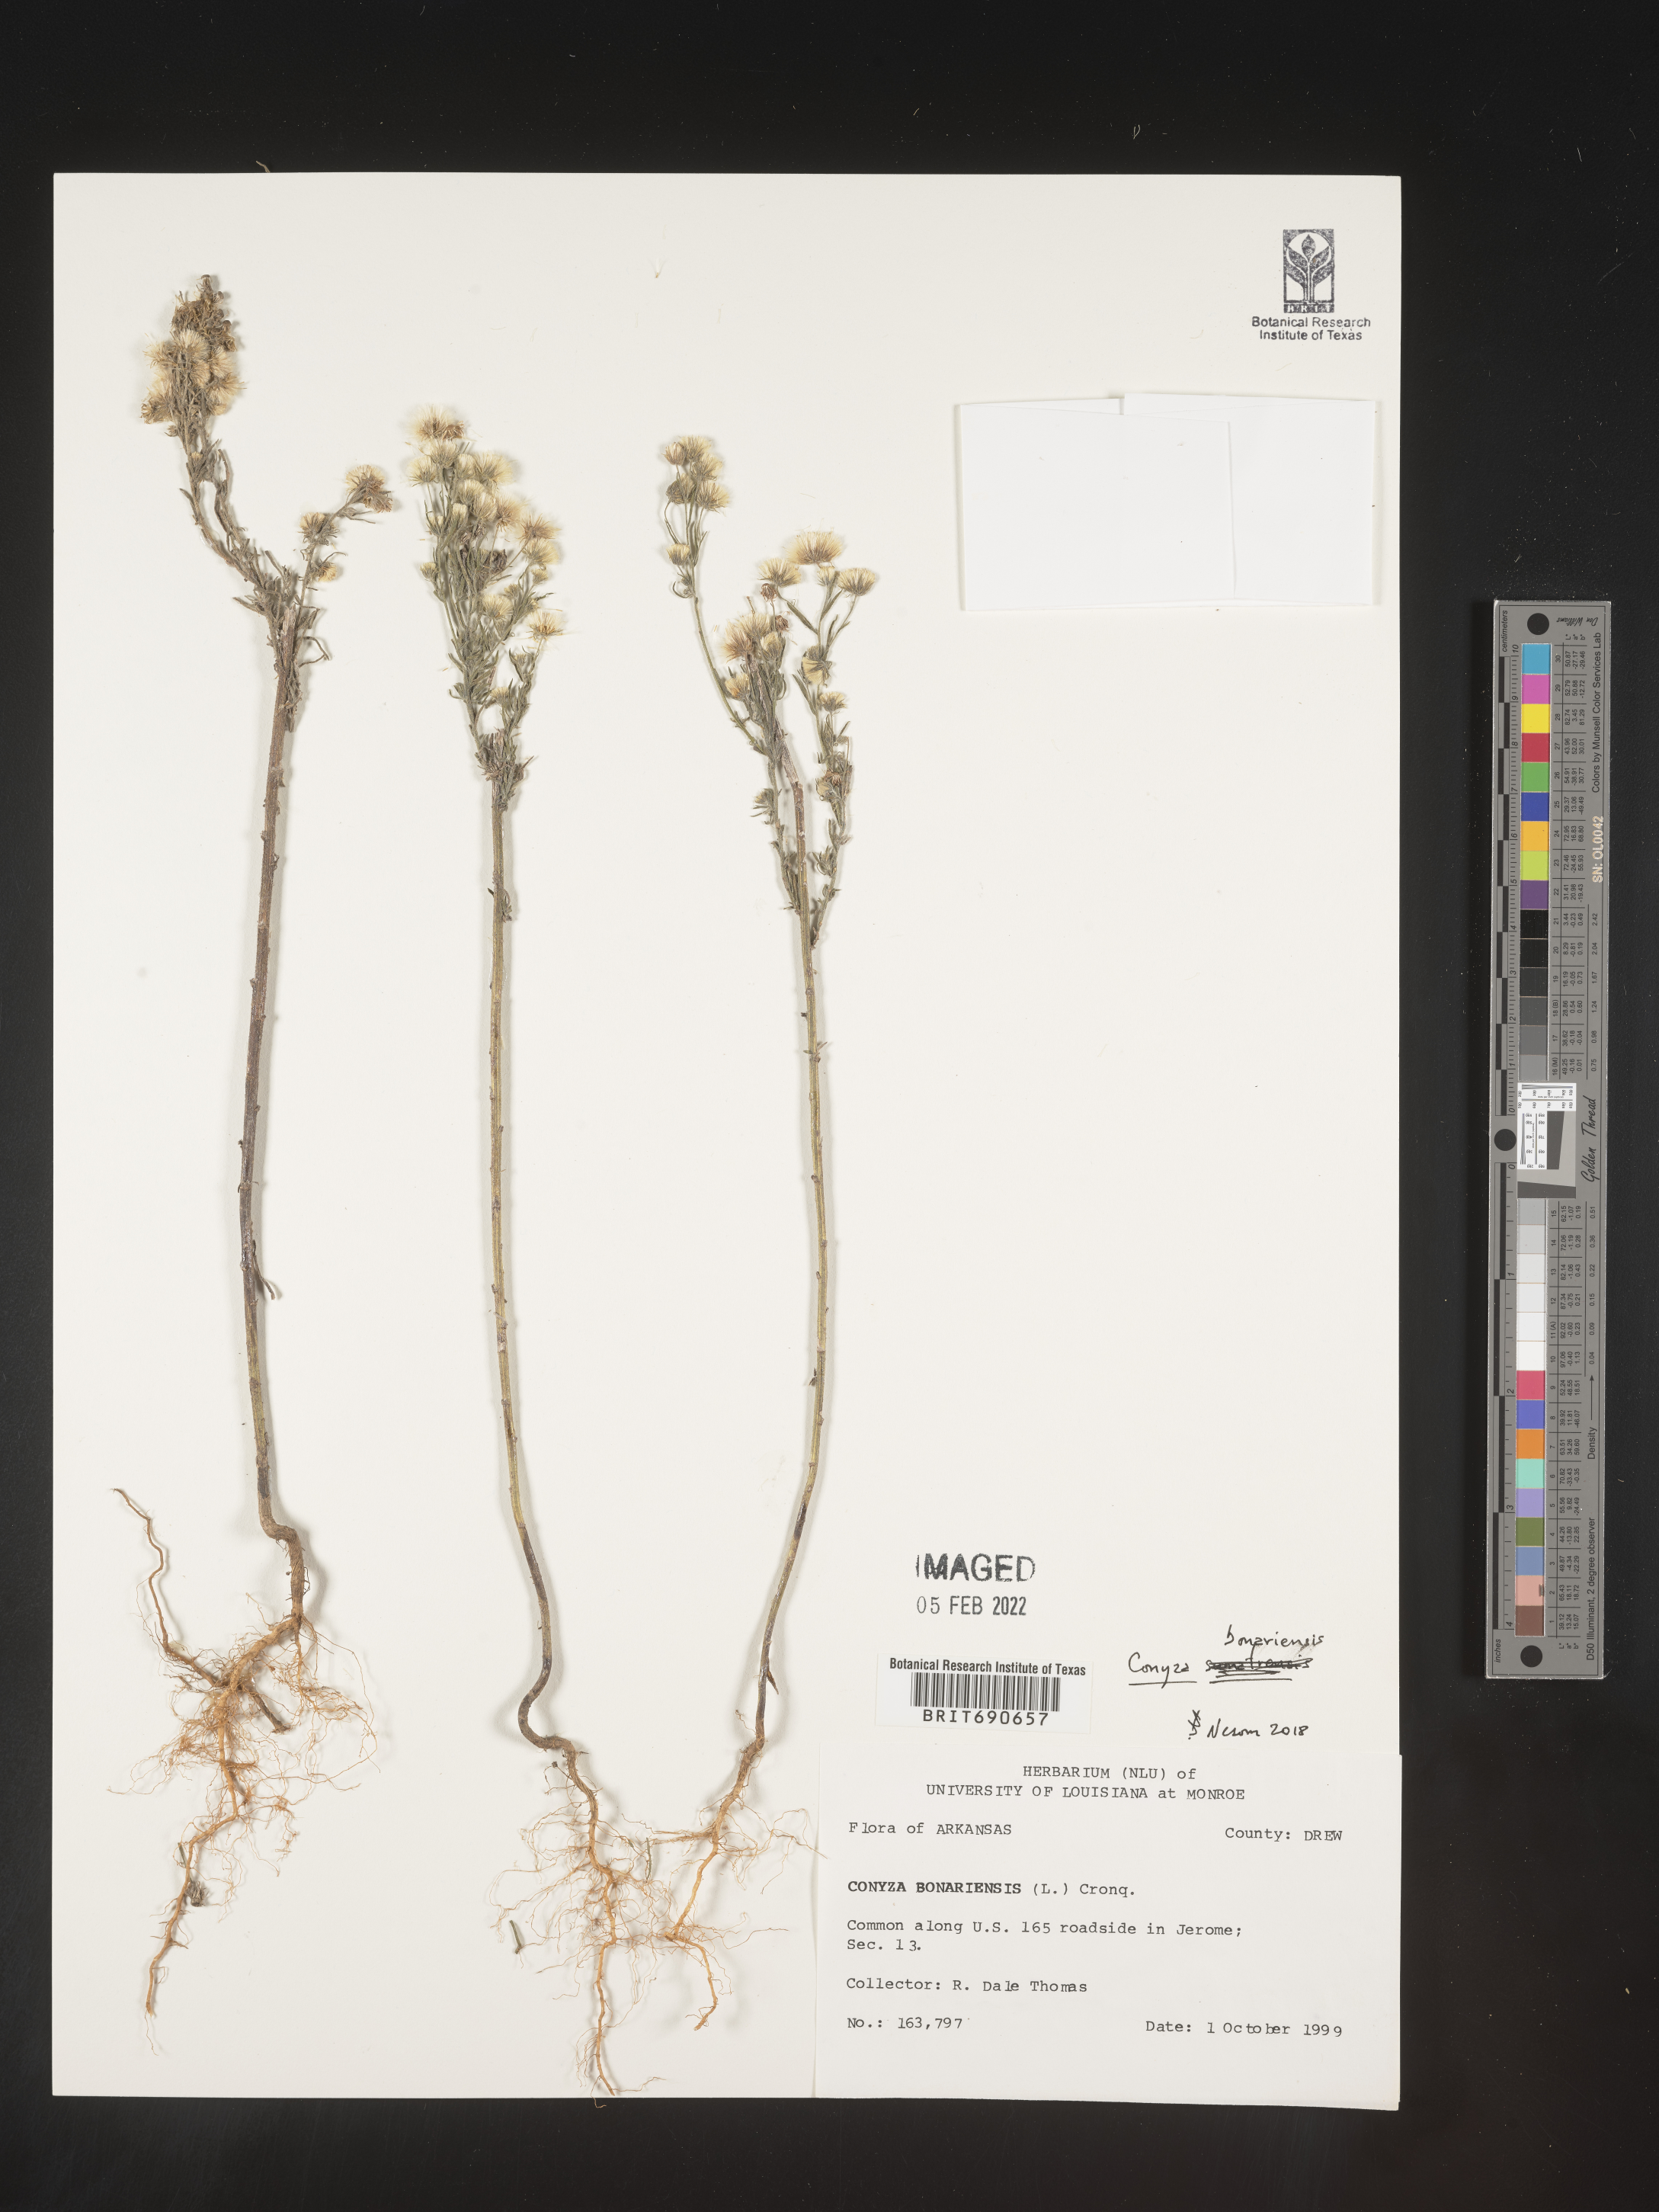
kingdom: Plantae
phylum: Tracheophyta
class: Magnoliopsida
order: Asterales
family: Asteraceae
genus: Erigeron
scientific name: Erigeron bonariensis
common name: Argentine fleabane
